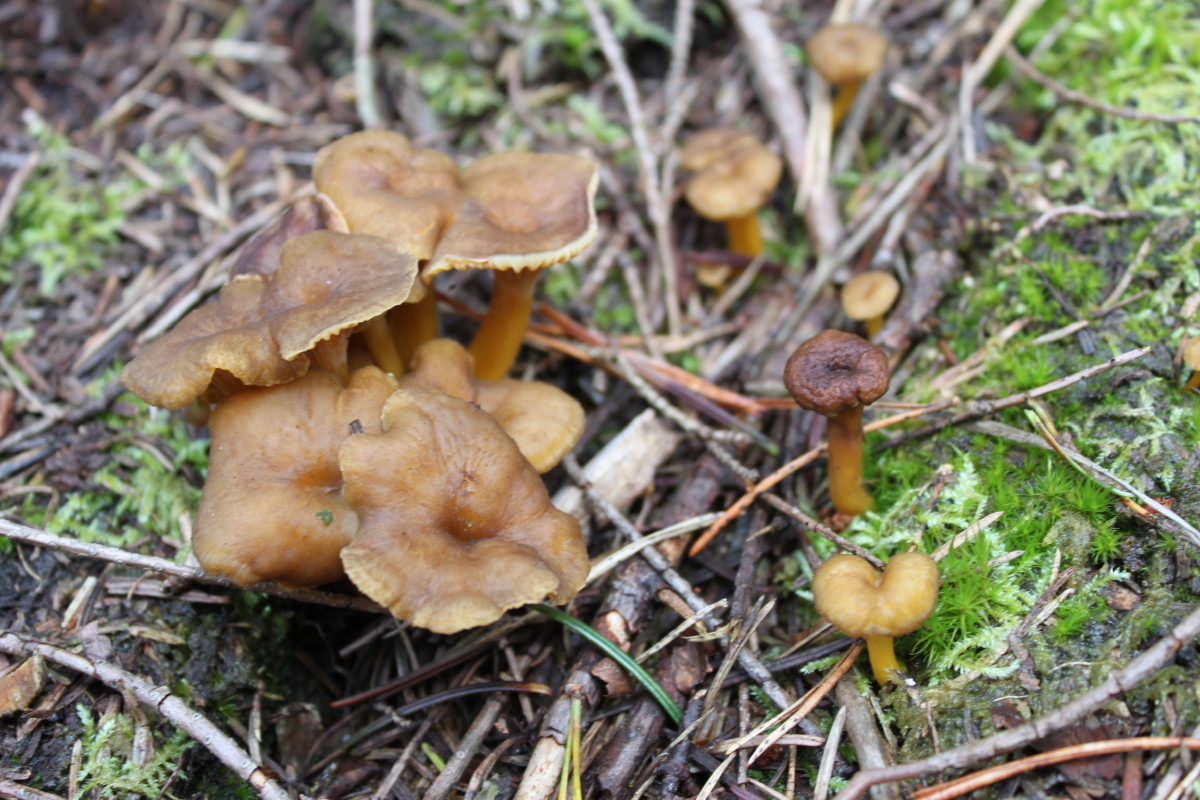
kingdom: Fungi
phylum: Basidiomycota
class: Agaricomycetes
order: Cantharellales
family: Hydnaceae
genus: Craterellus
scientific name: Craterellus tubaeformis
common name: tragt-kantarel
